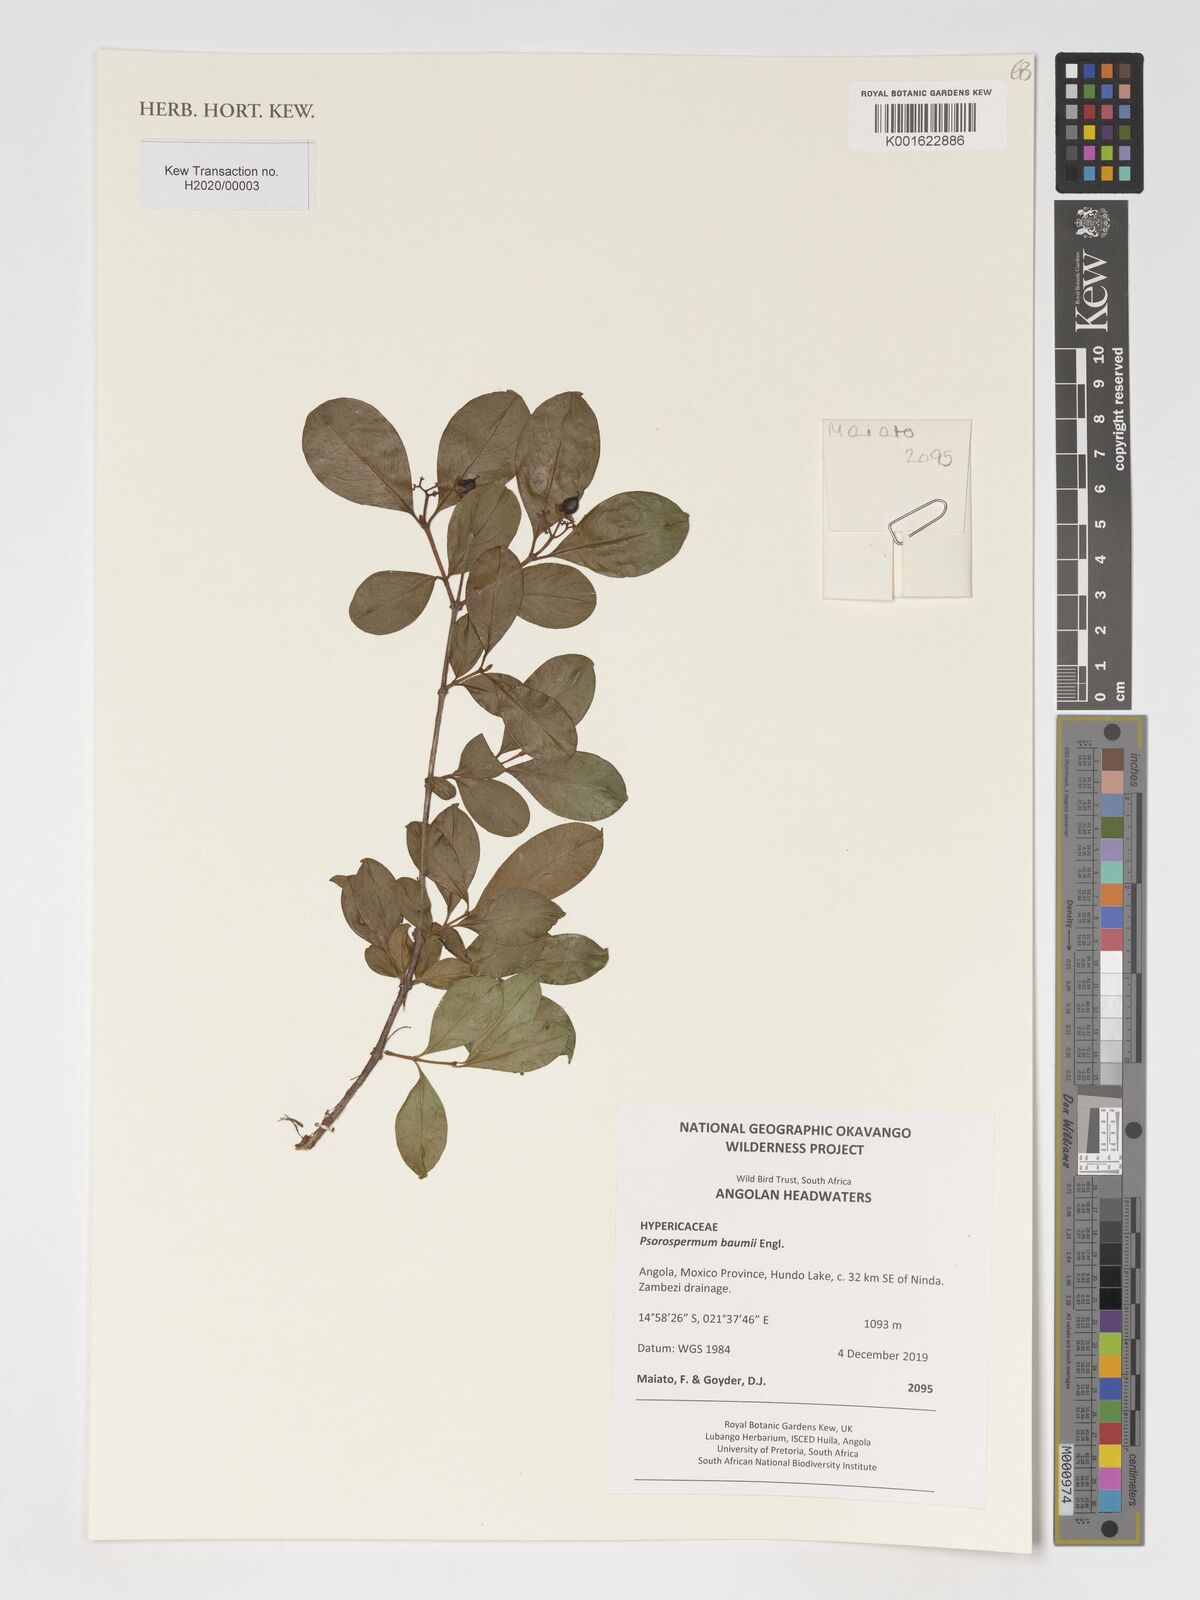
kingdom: Plantae
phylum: Tracheophyta
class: Magnoliopsida
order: Malpighiales
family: Hypericaceae
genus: Psorospermum
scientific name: Psorospermum baumii
